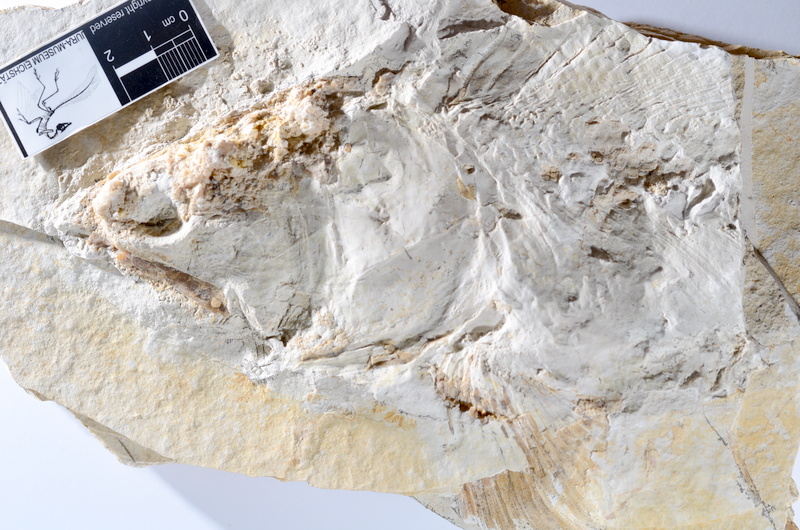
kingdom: Animalia
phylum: Chordata
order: Amiiformes
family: Caturidae
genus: Caturus
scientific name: Caturus
